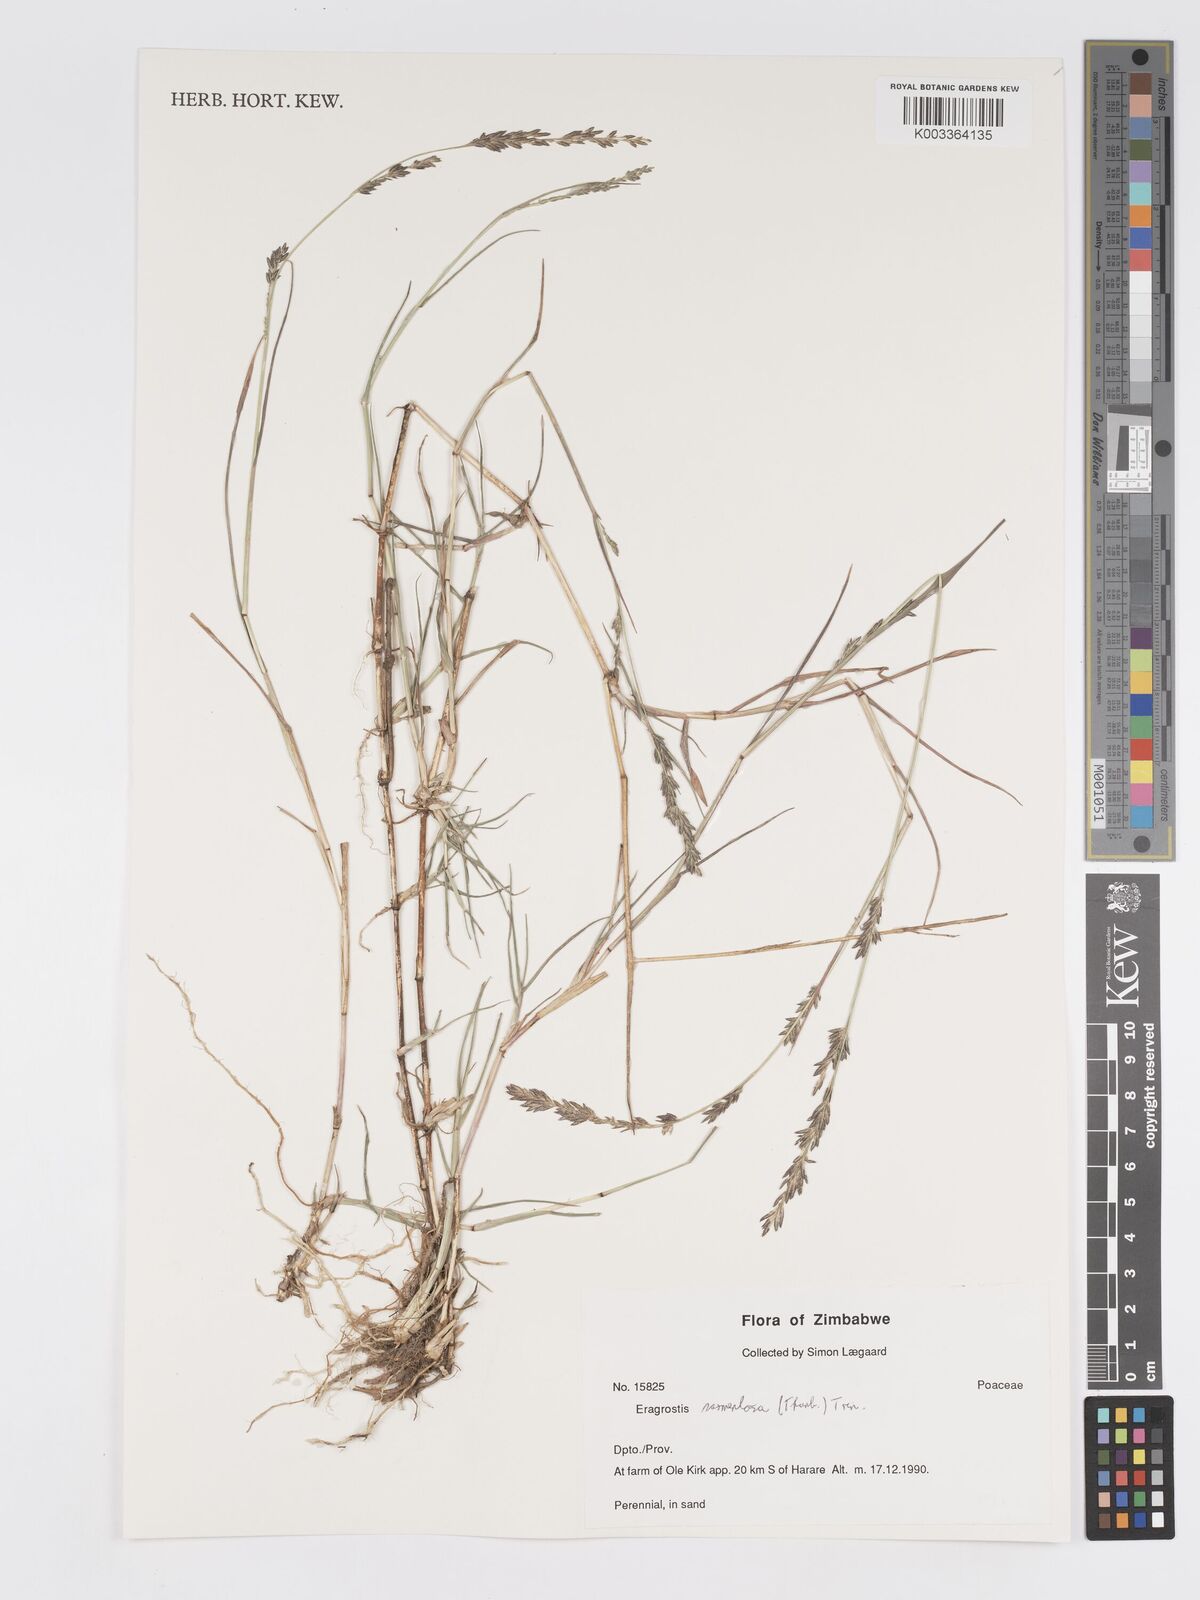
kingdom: Plantae
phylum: Tracheophyta
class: Liliopsida
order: Poales
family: Poaceae
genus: Eragrostis
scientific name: Eragrostis sarmentosa
